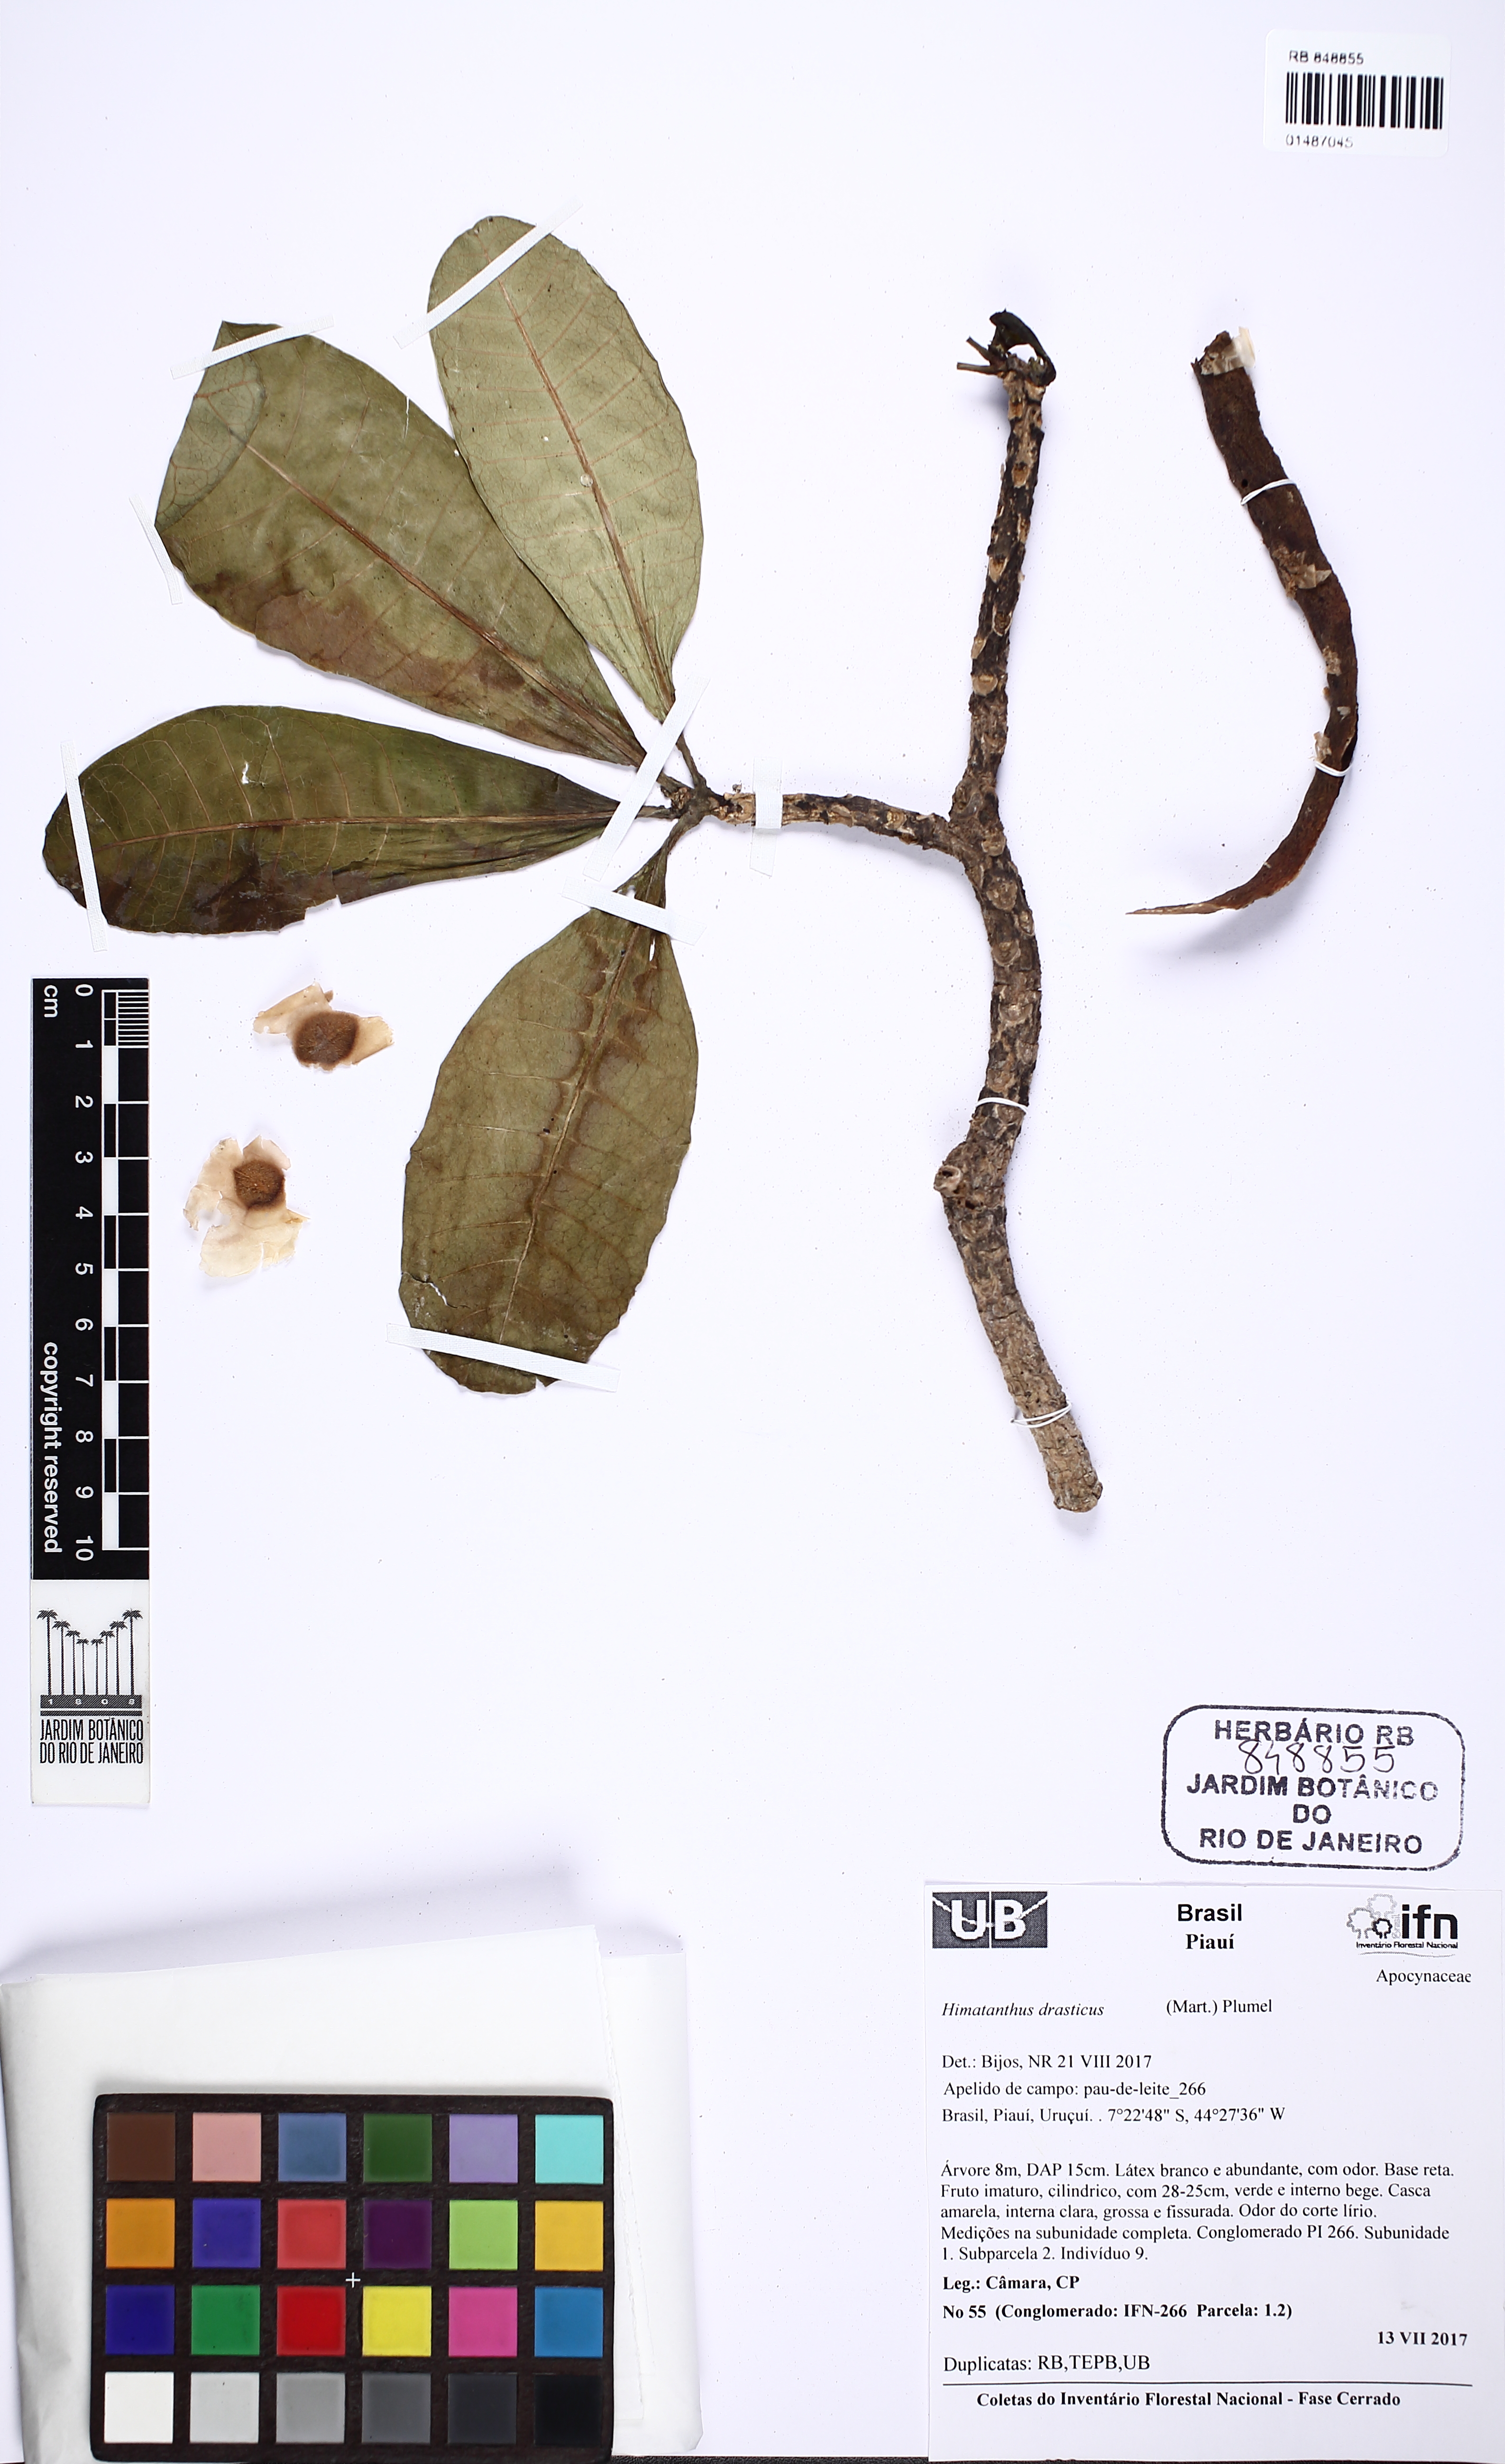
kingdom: Plantae
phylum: Tracheophyta
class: Magnoliopsida
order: Gentianales
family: Apocynaceae
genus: Himatanthus
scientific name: Himatanthus drasticus
